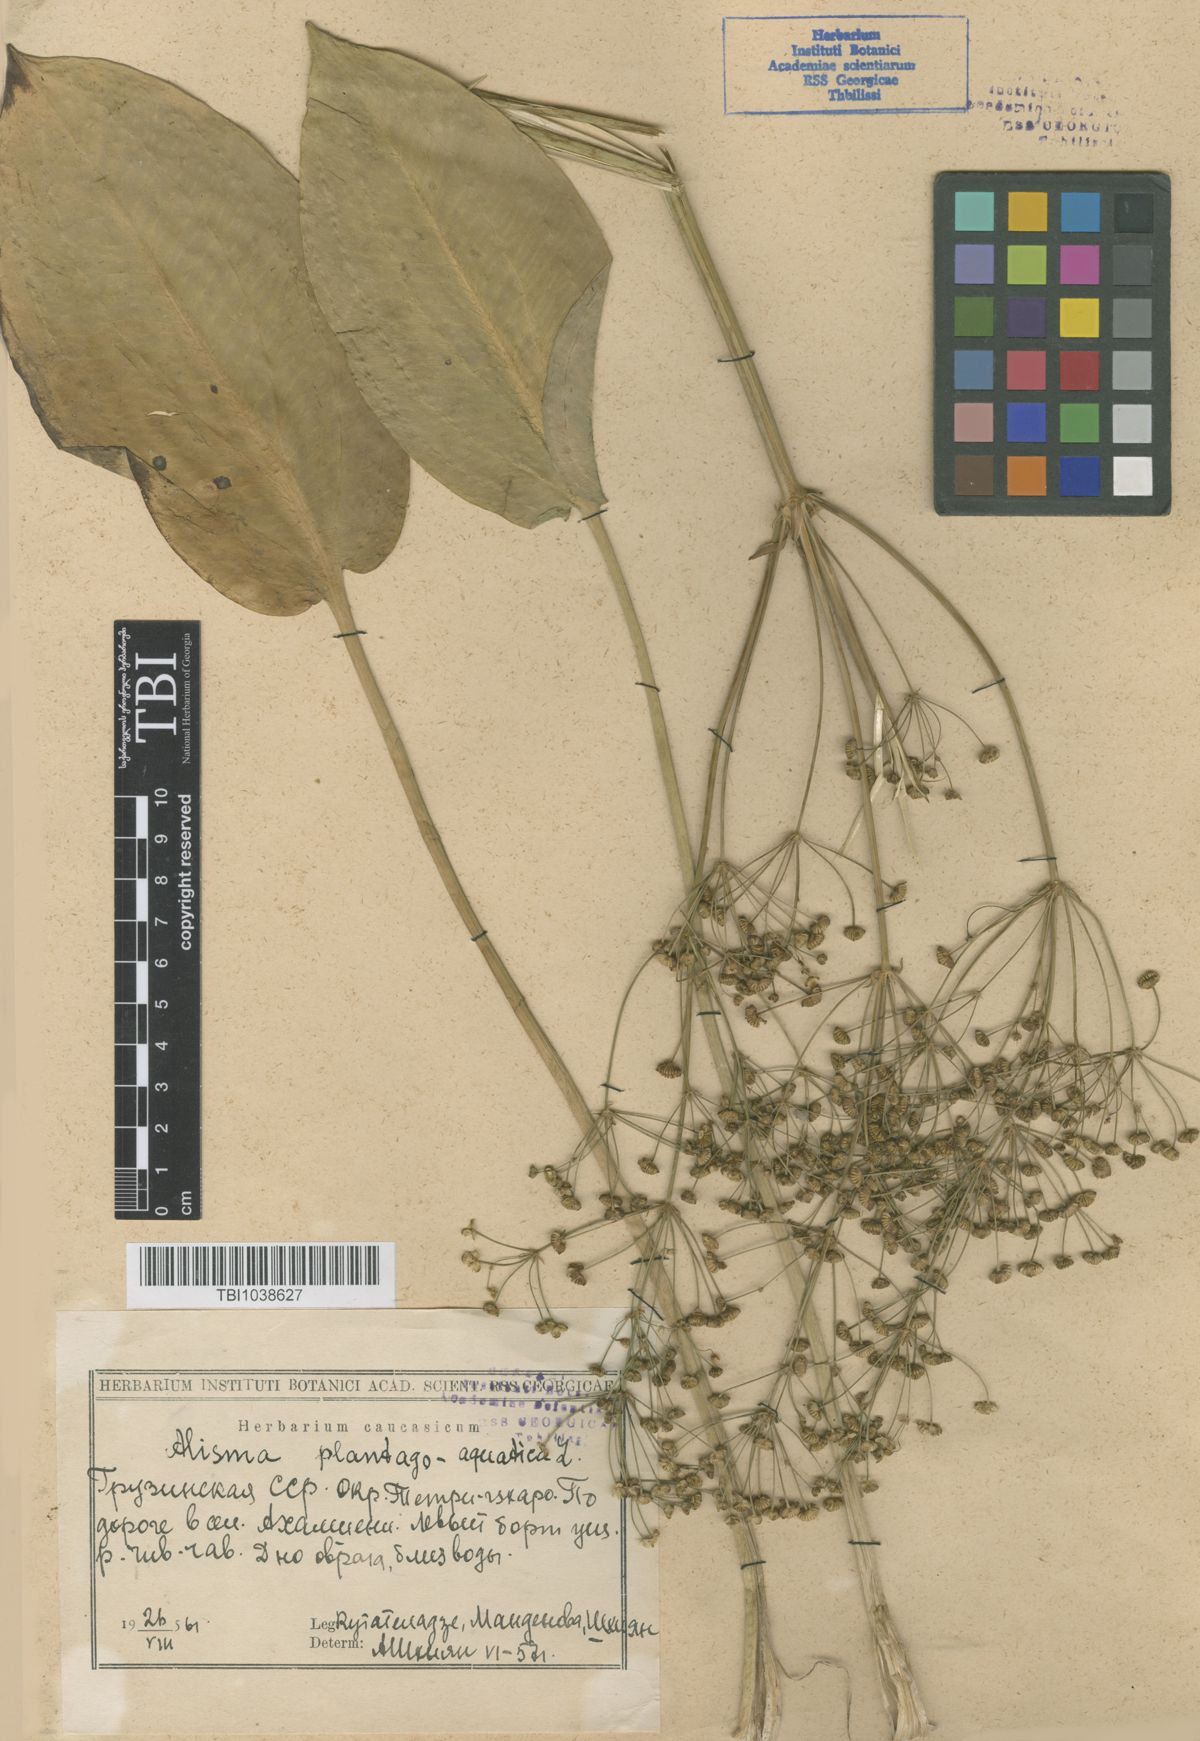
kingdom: Plantae
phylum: Tracheophyta
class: Liliopsida
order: Alismatales
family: Alismataceae
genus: Alisma
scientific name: Alisma plantago-aquatica
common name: Water-plantain
